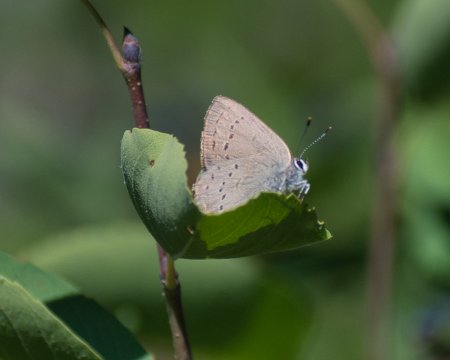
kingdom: Animalia
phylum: Arthropoda
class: Insecta
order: Lepidoptera
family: Lycaenidae
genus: Strymon
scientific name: Strymon sylvinus
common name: Sylvan Hairstreak
